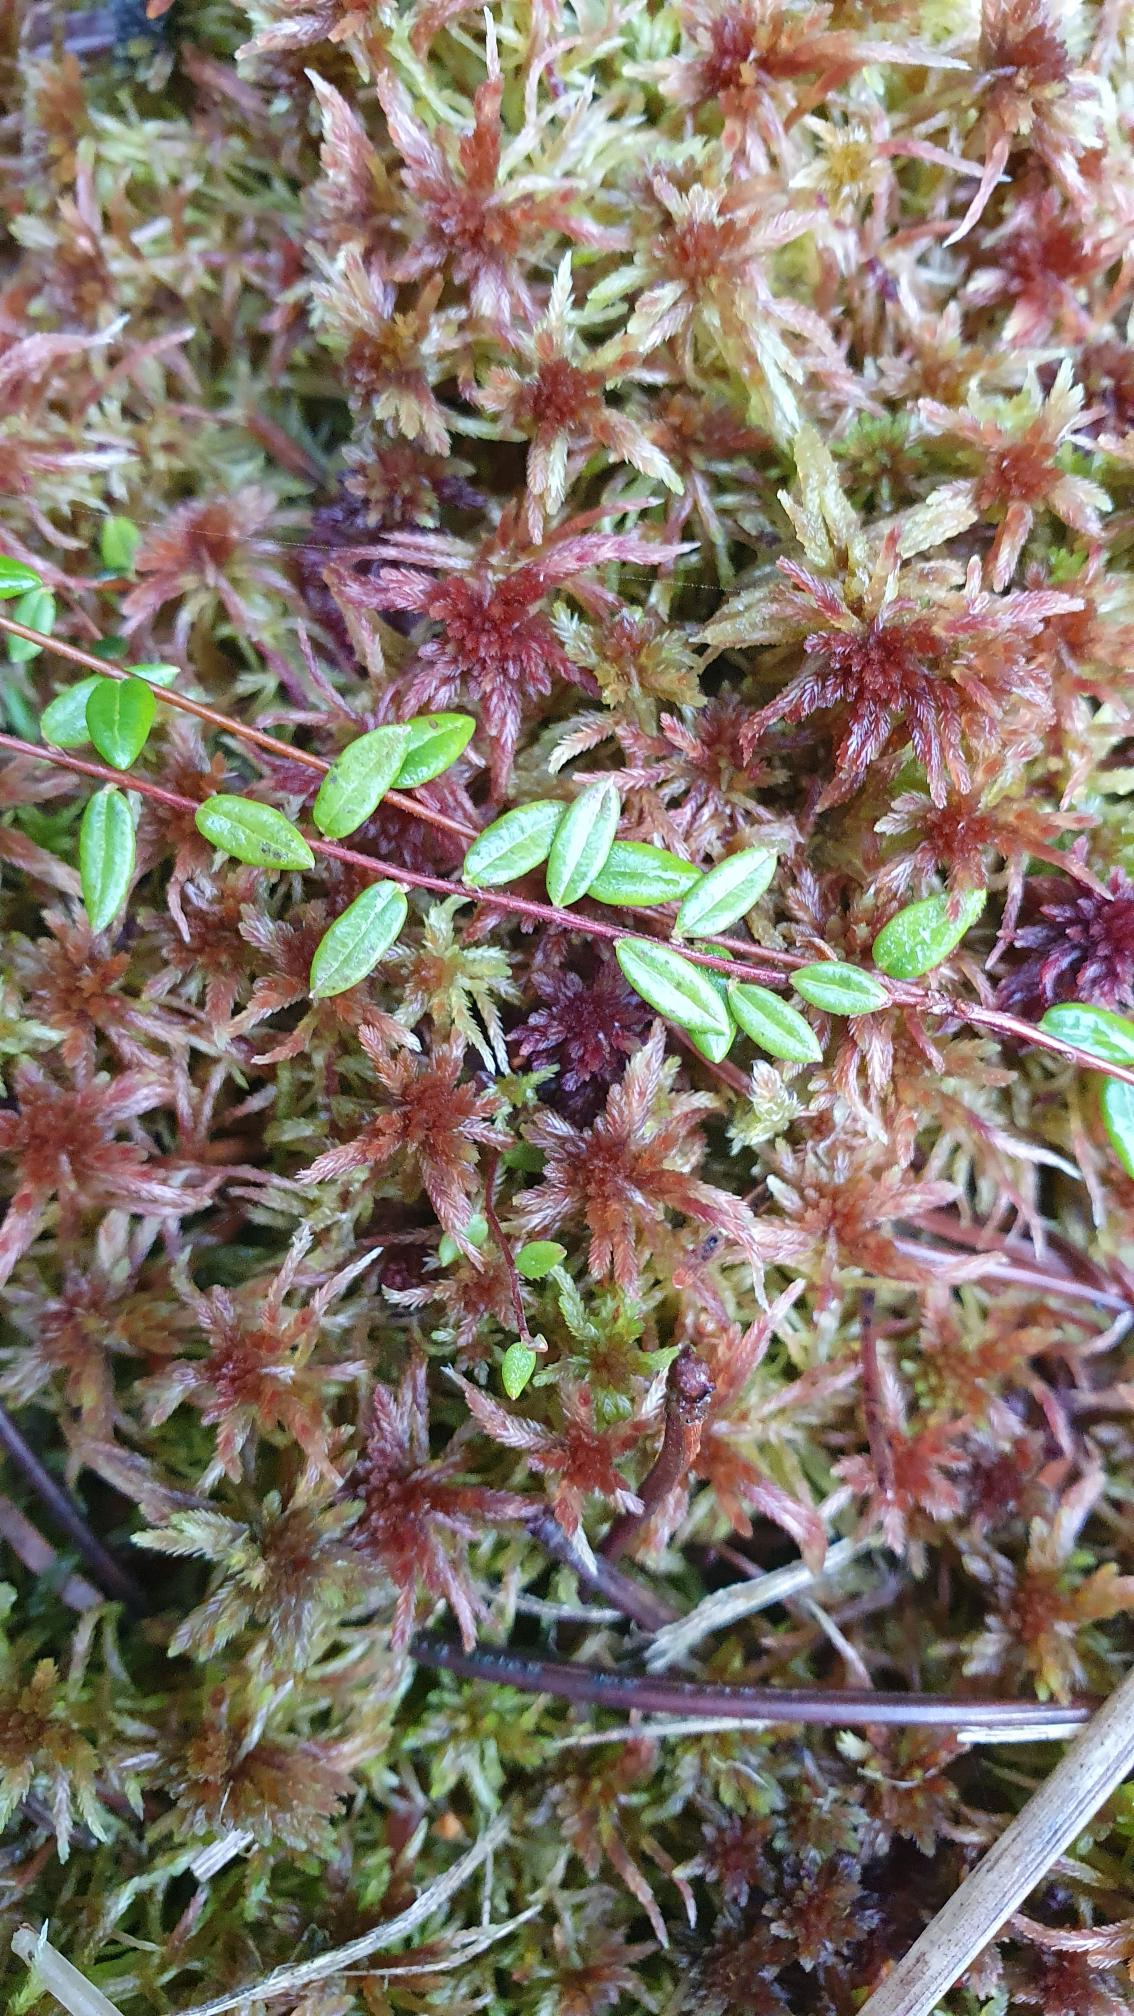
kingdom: Plantae
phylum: Tracheophyta
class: Magnoliopsida
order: Ericales
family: Ericaceae
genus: Vaccinium
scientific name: Vaccinium oxycoccos
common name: Tranebær
